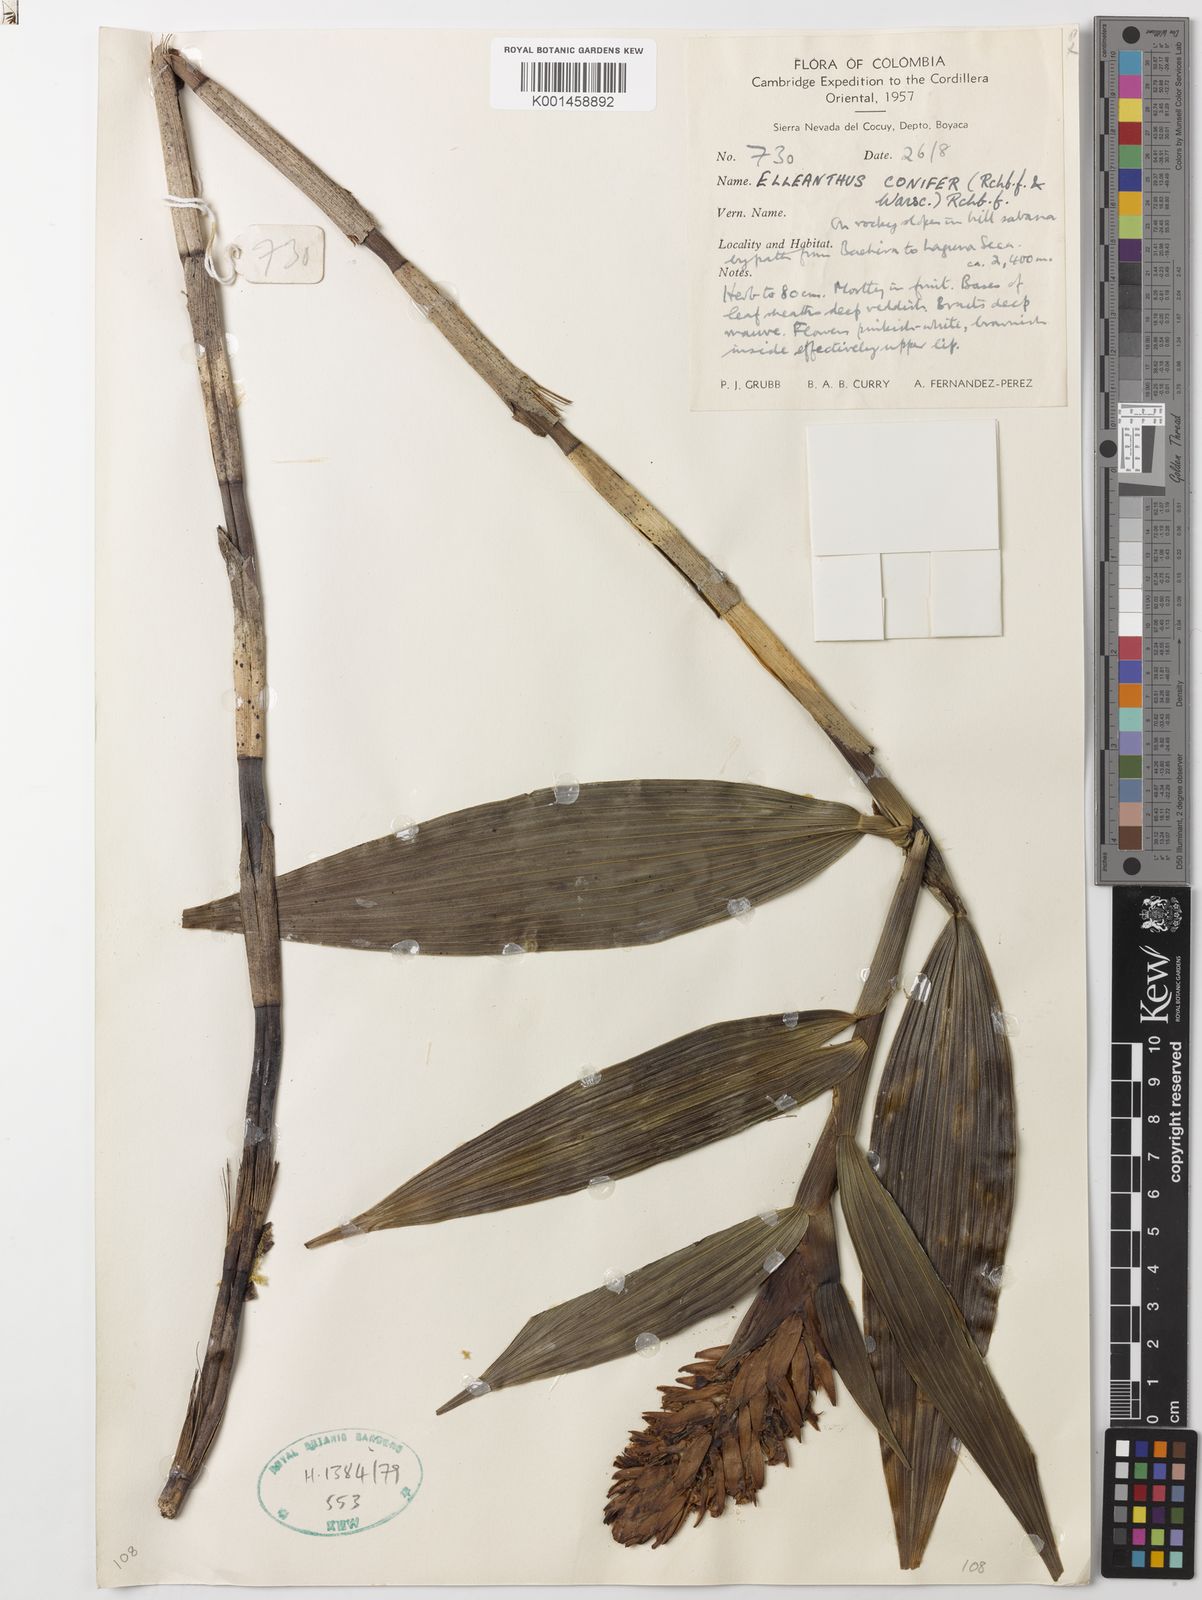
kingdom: Plantae
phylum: Tracheophyta
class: Liliopsida
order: Asparagales
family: Orchidaceae
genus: Elleanthus
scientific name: Elleanthus conifer
